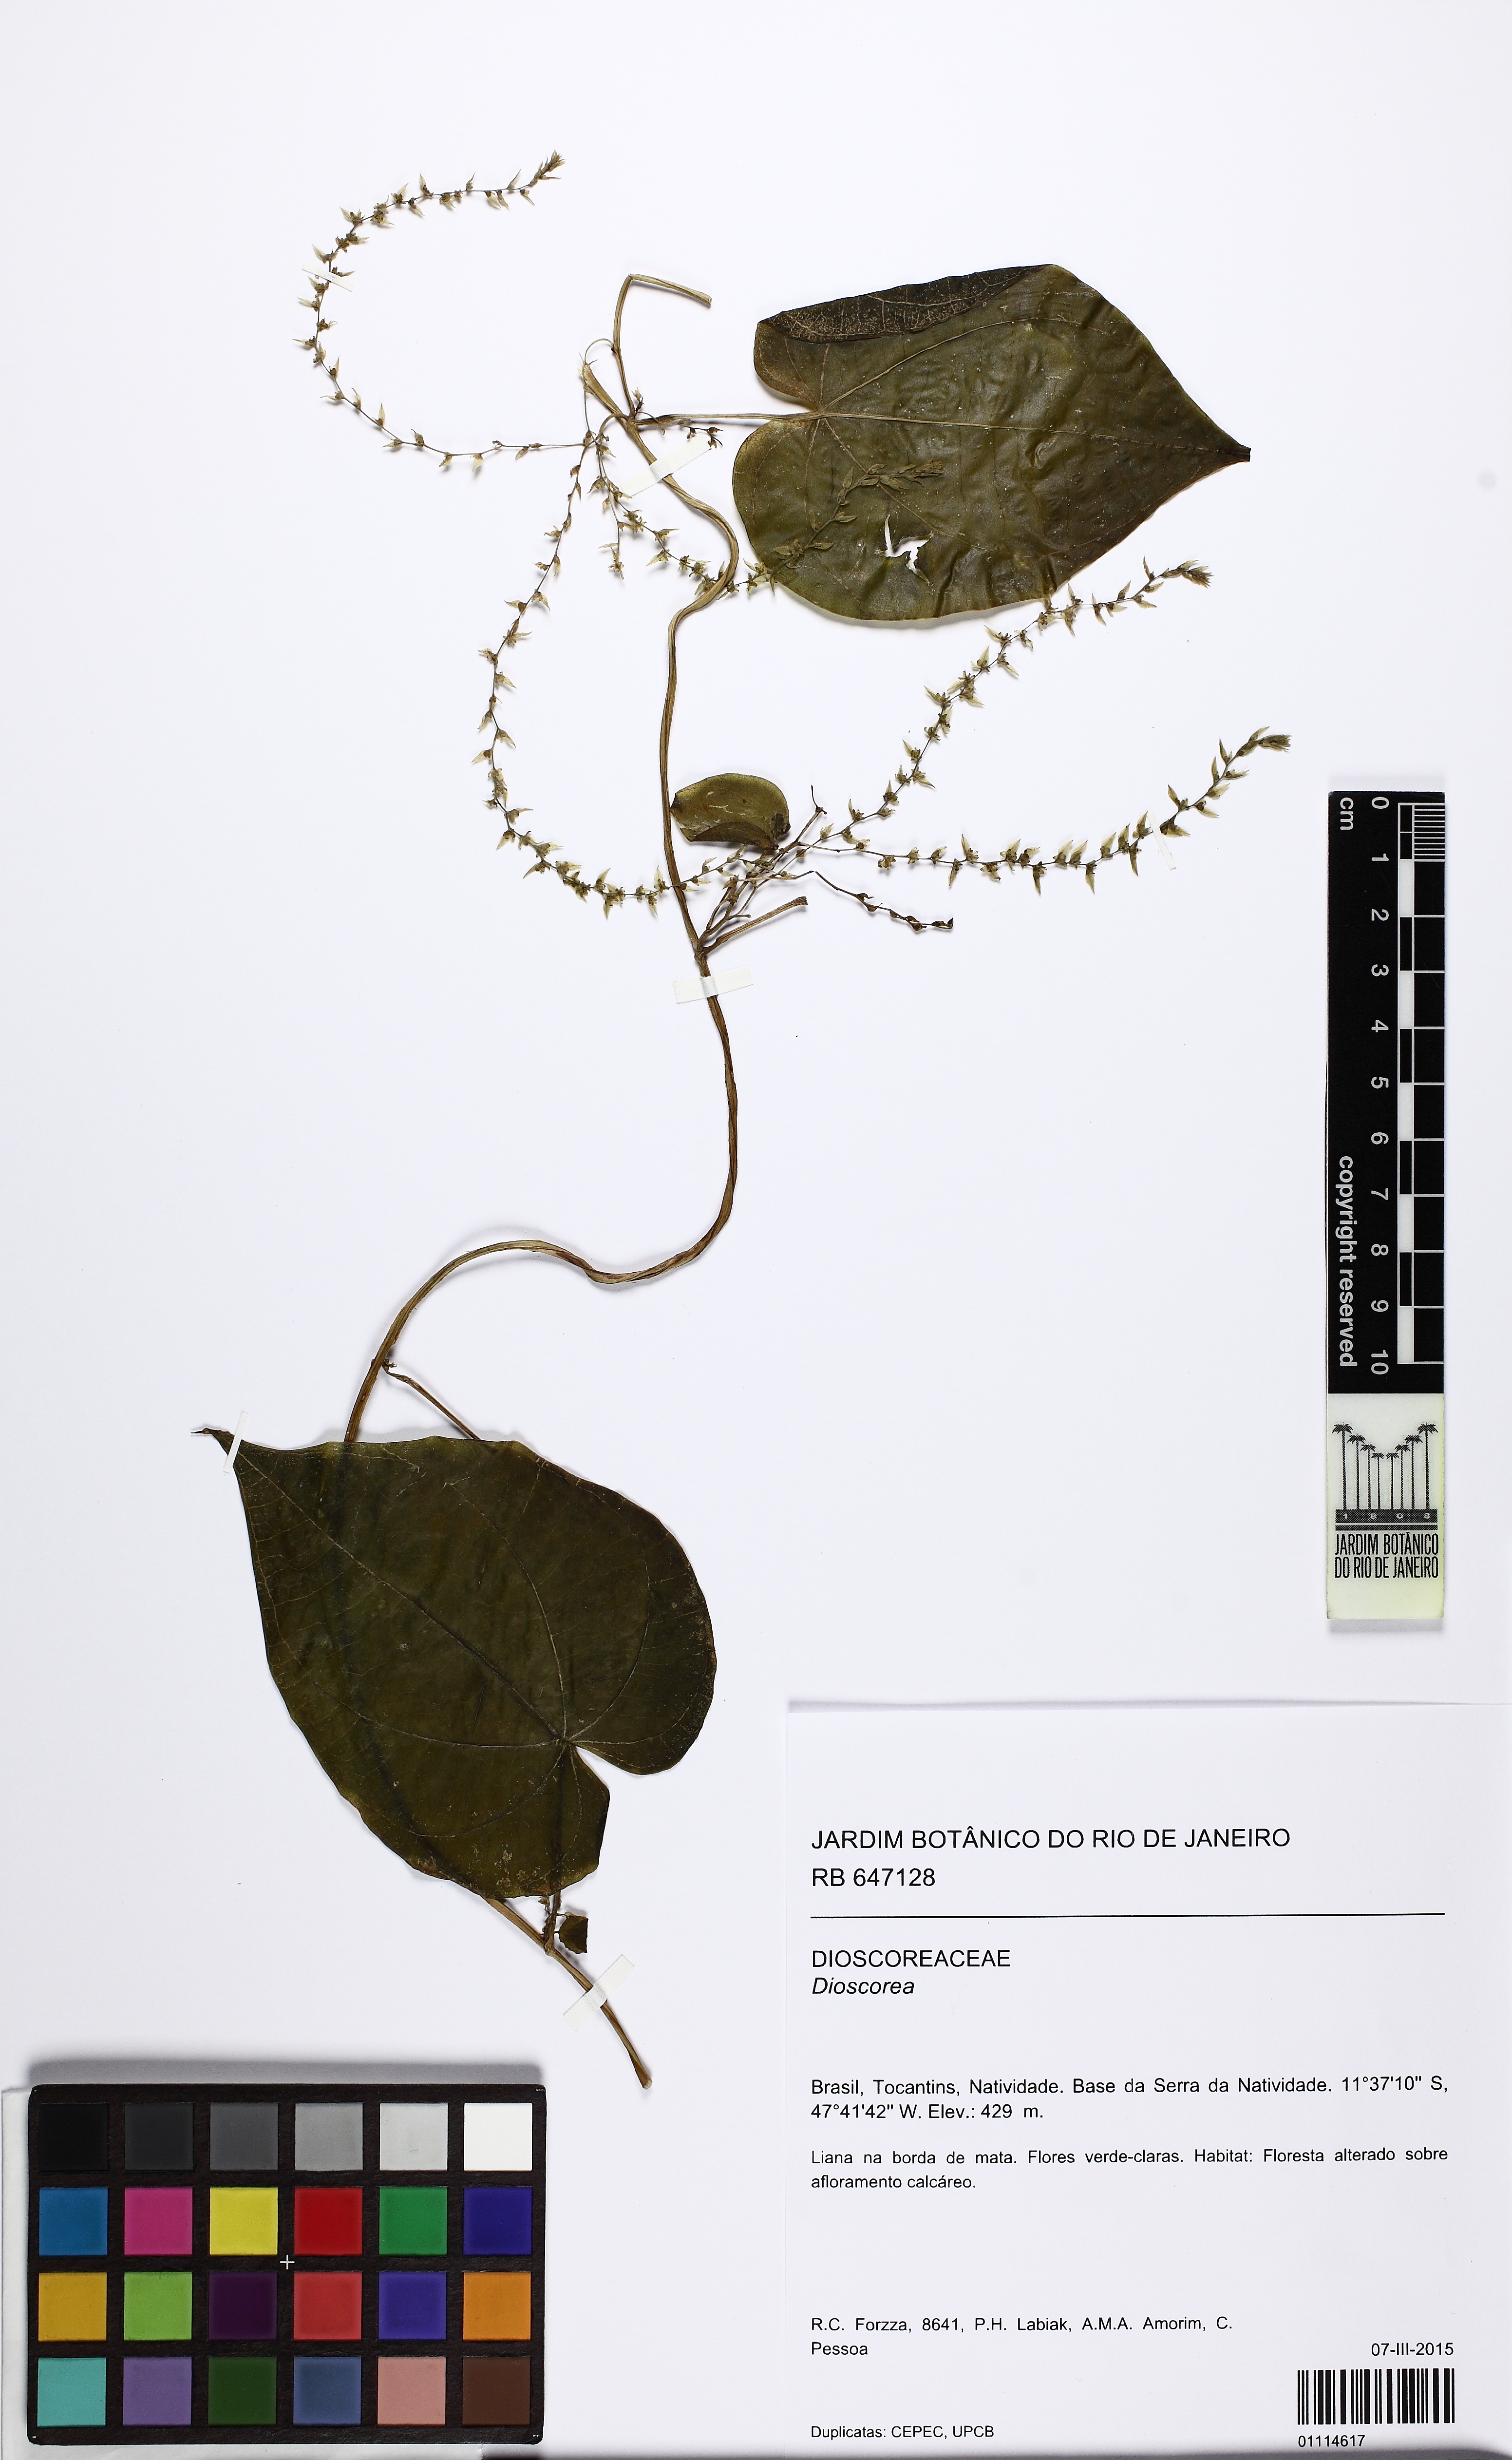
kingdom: Plantae
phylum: Tracheophyta
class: Liliopsida
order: Dioscoreales
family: Dioscoreaceae
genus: Dioscorea
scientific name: Dioscorea rumicoides
